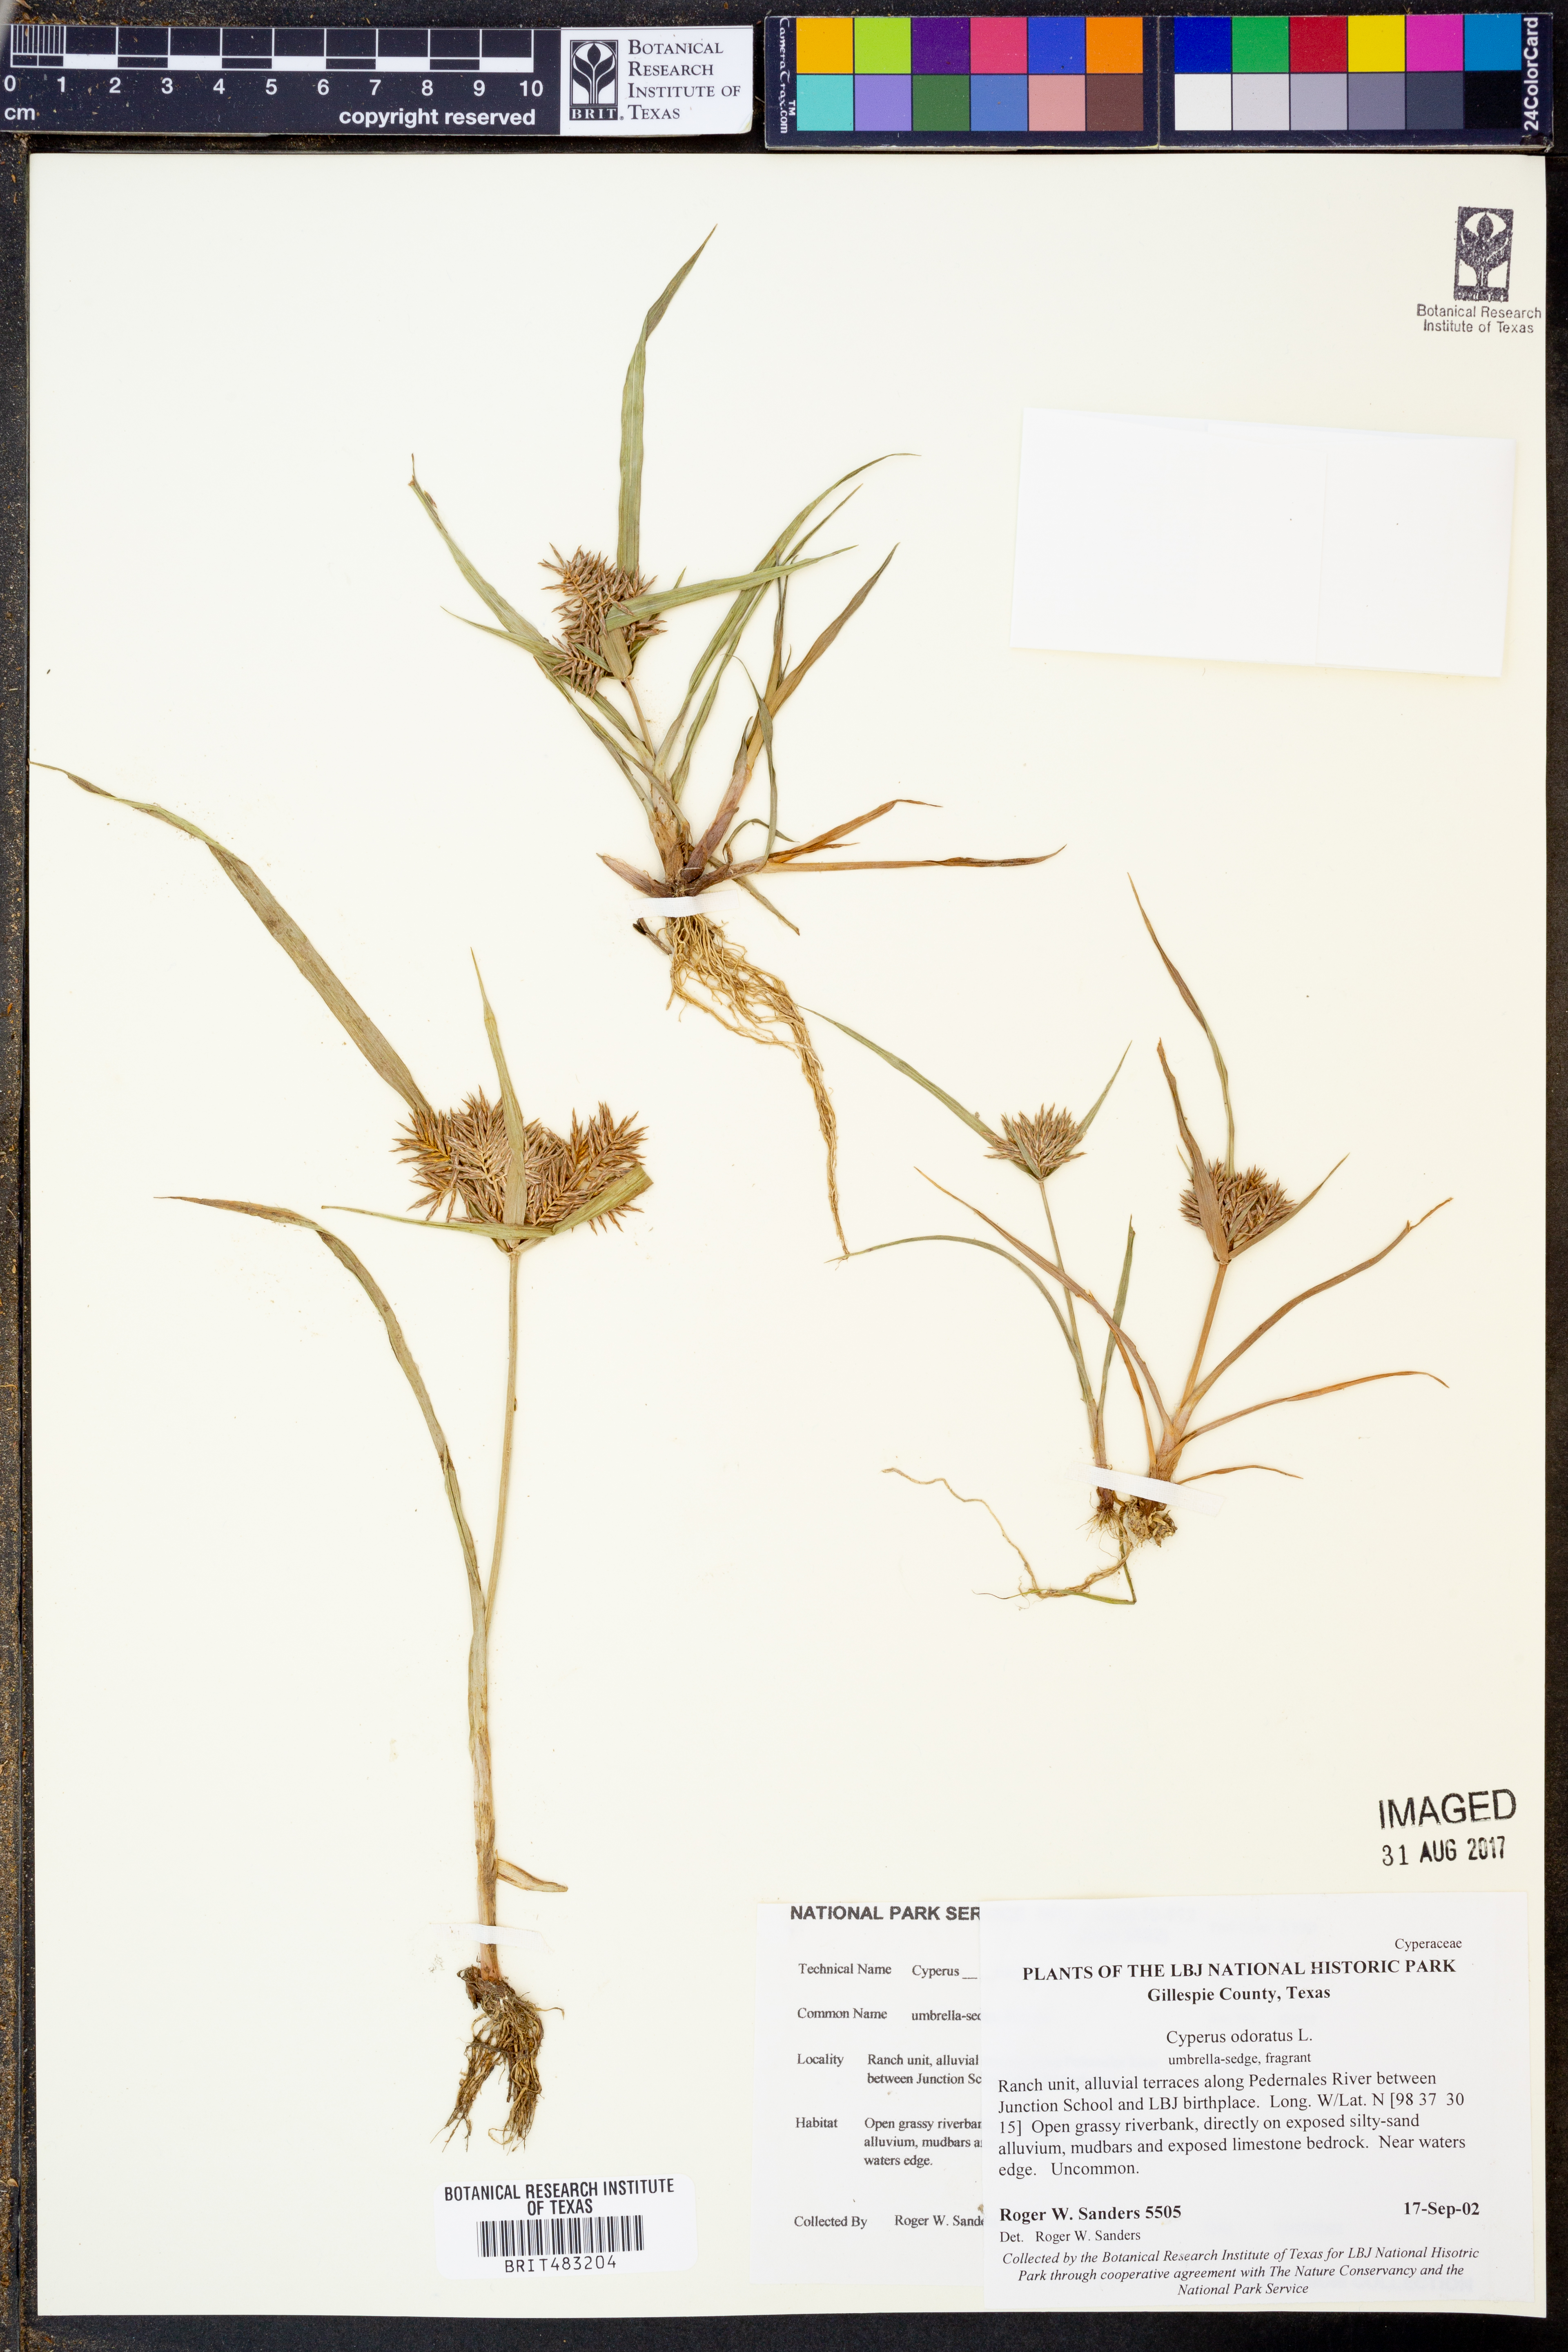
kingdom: Plantae
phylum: Tracheophyta
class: Liliopsida
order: Poales
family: Cyperaceae
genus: Cyperus
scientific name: Cyperus odoratus
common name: Fragrant flatsedge
